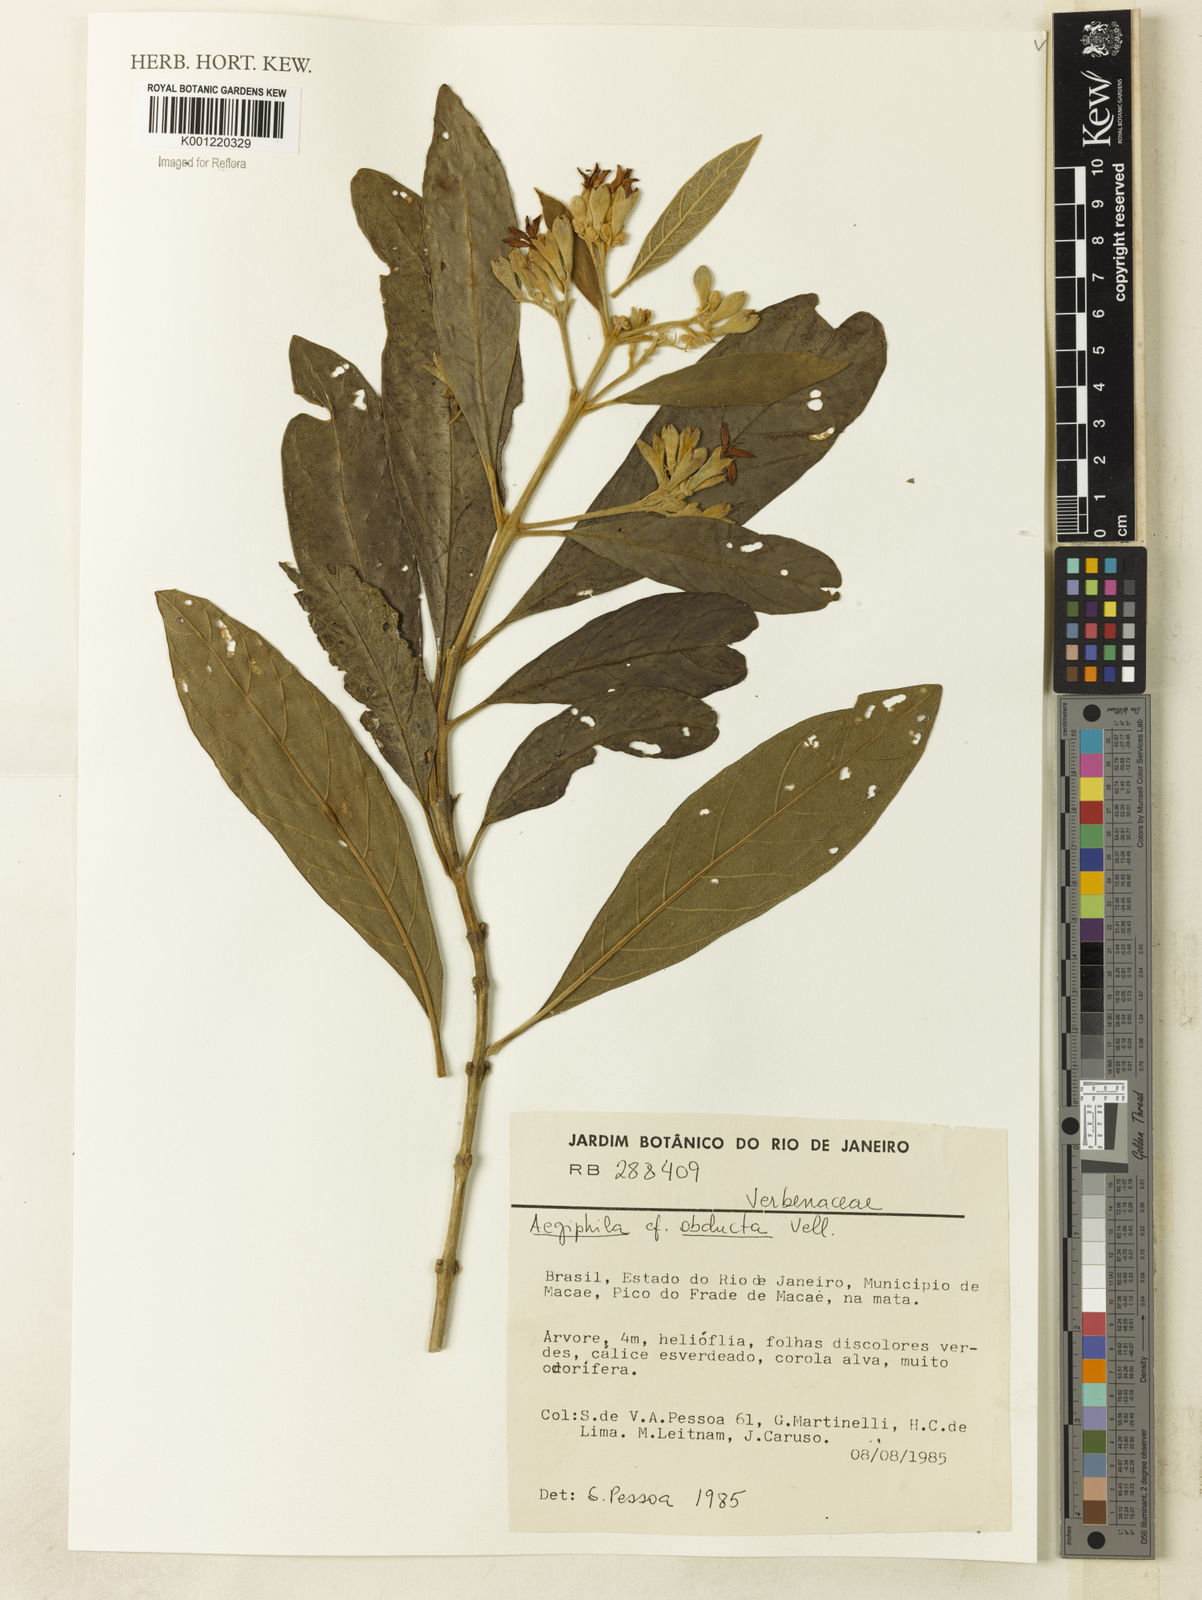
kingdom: Plantae
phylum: Tracheophyta
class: Magnoliopsida
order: Lamiales
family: Lamiaceae
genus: Aegiphila
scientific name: Aegiphila obducta
